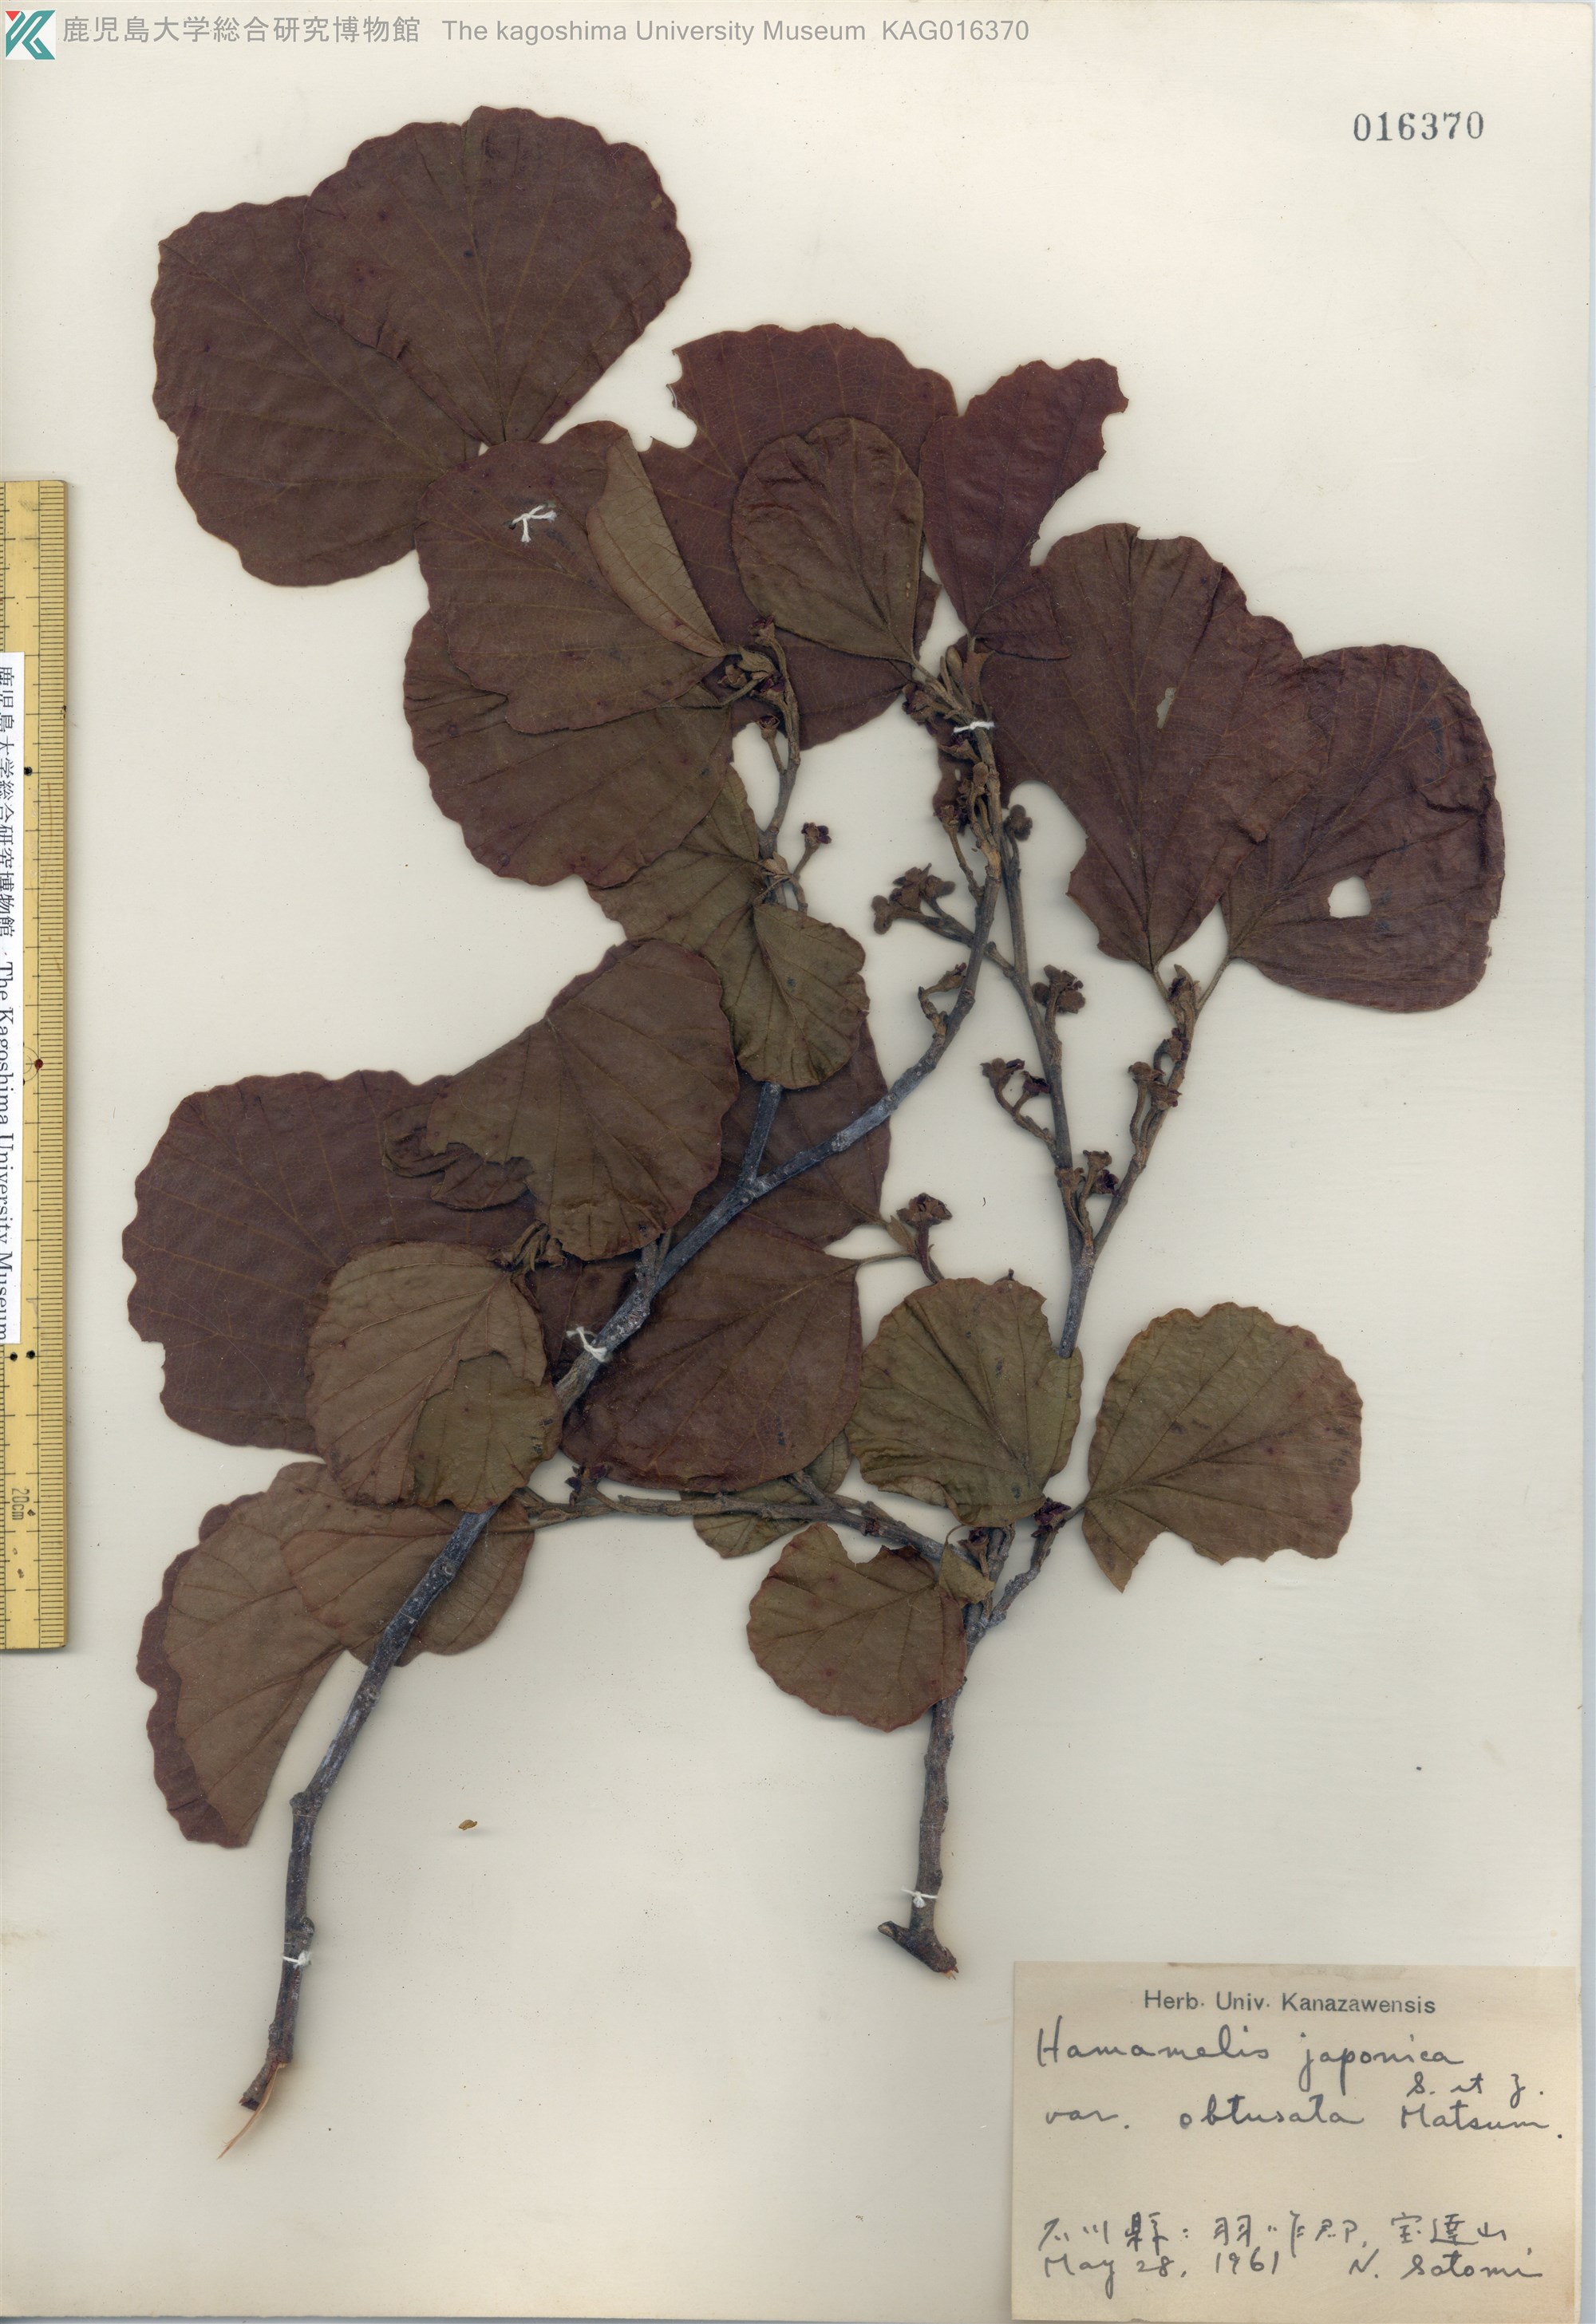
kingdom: Plantae
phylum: Tracheophyta
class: Magnoliopsida
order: Saxifragales
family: Hamamelidaceae
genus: Hamamelis
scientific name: Hamamelis japonica
